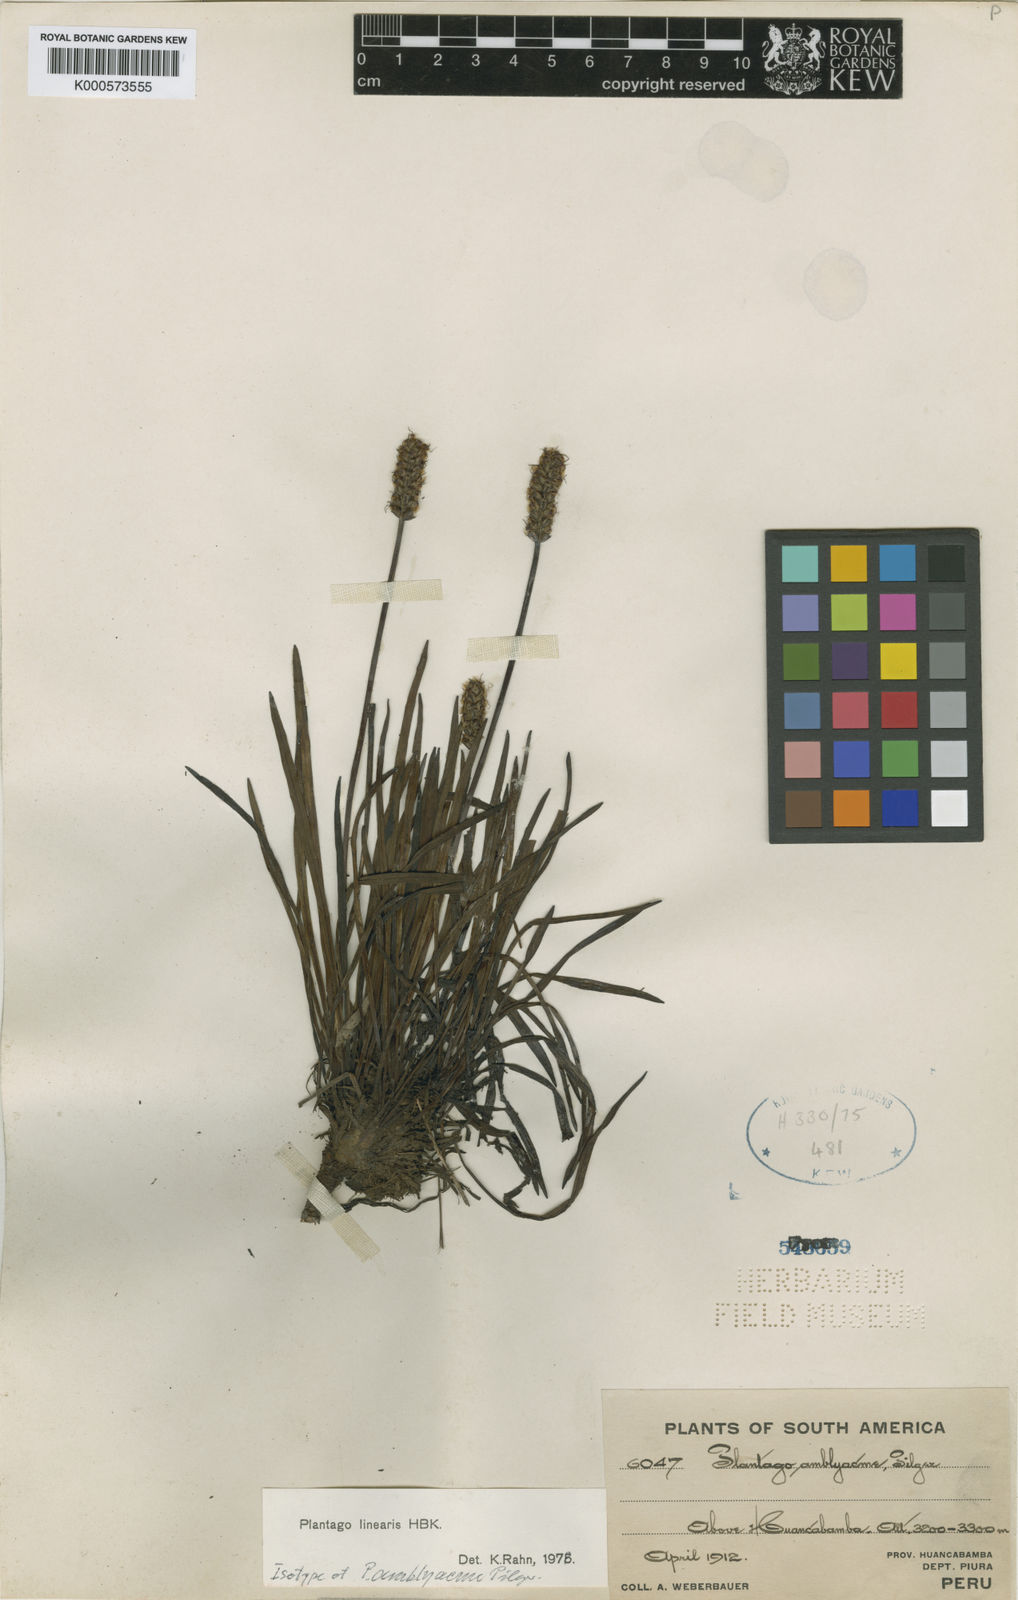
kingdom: Plantae
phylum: Tracheophyta
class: Magnoliopsida
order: Lamiales
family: Plantaginaceae
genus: Plantago
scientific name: Plantago linearis
